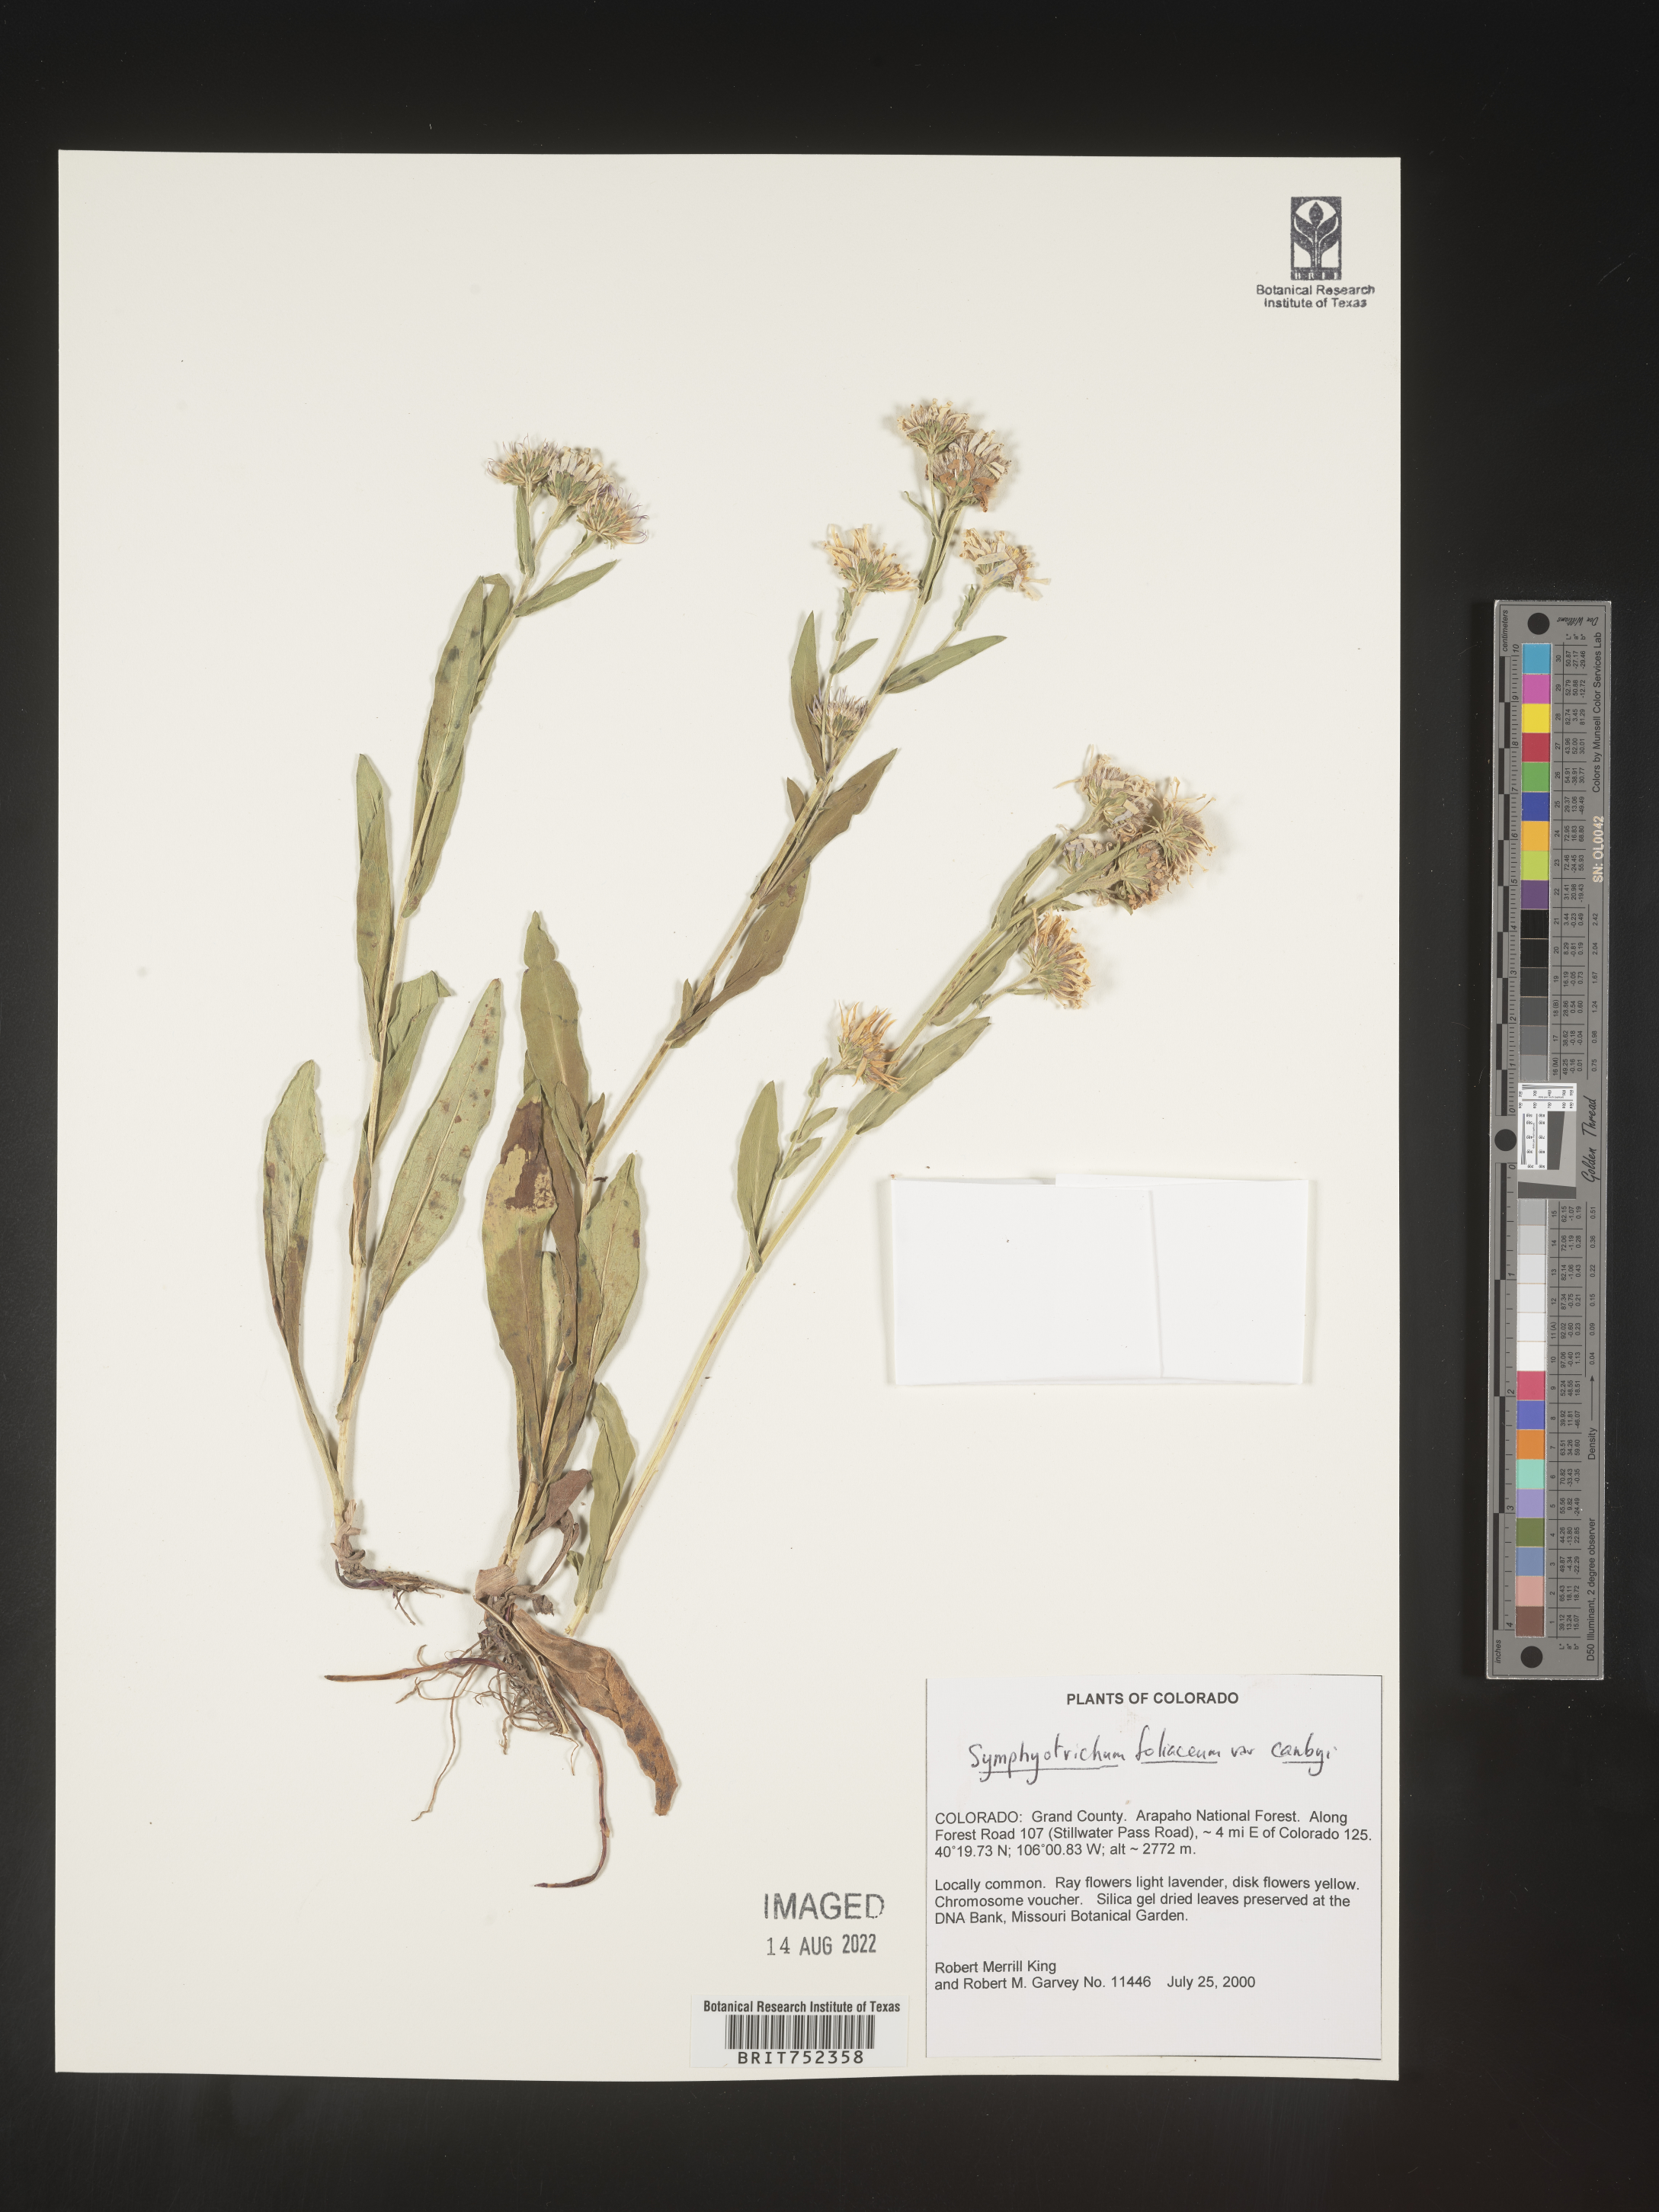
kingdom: Plantae
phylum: Tracheophyta
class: Magnoliopsida
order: Asterales
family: Asteraceae
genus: Symphyotrichum
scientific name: Symphyotrichum foliaceum
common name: Leafy aster
